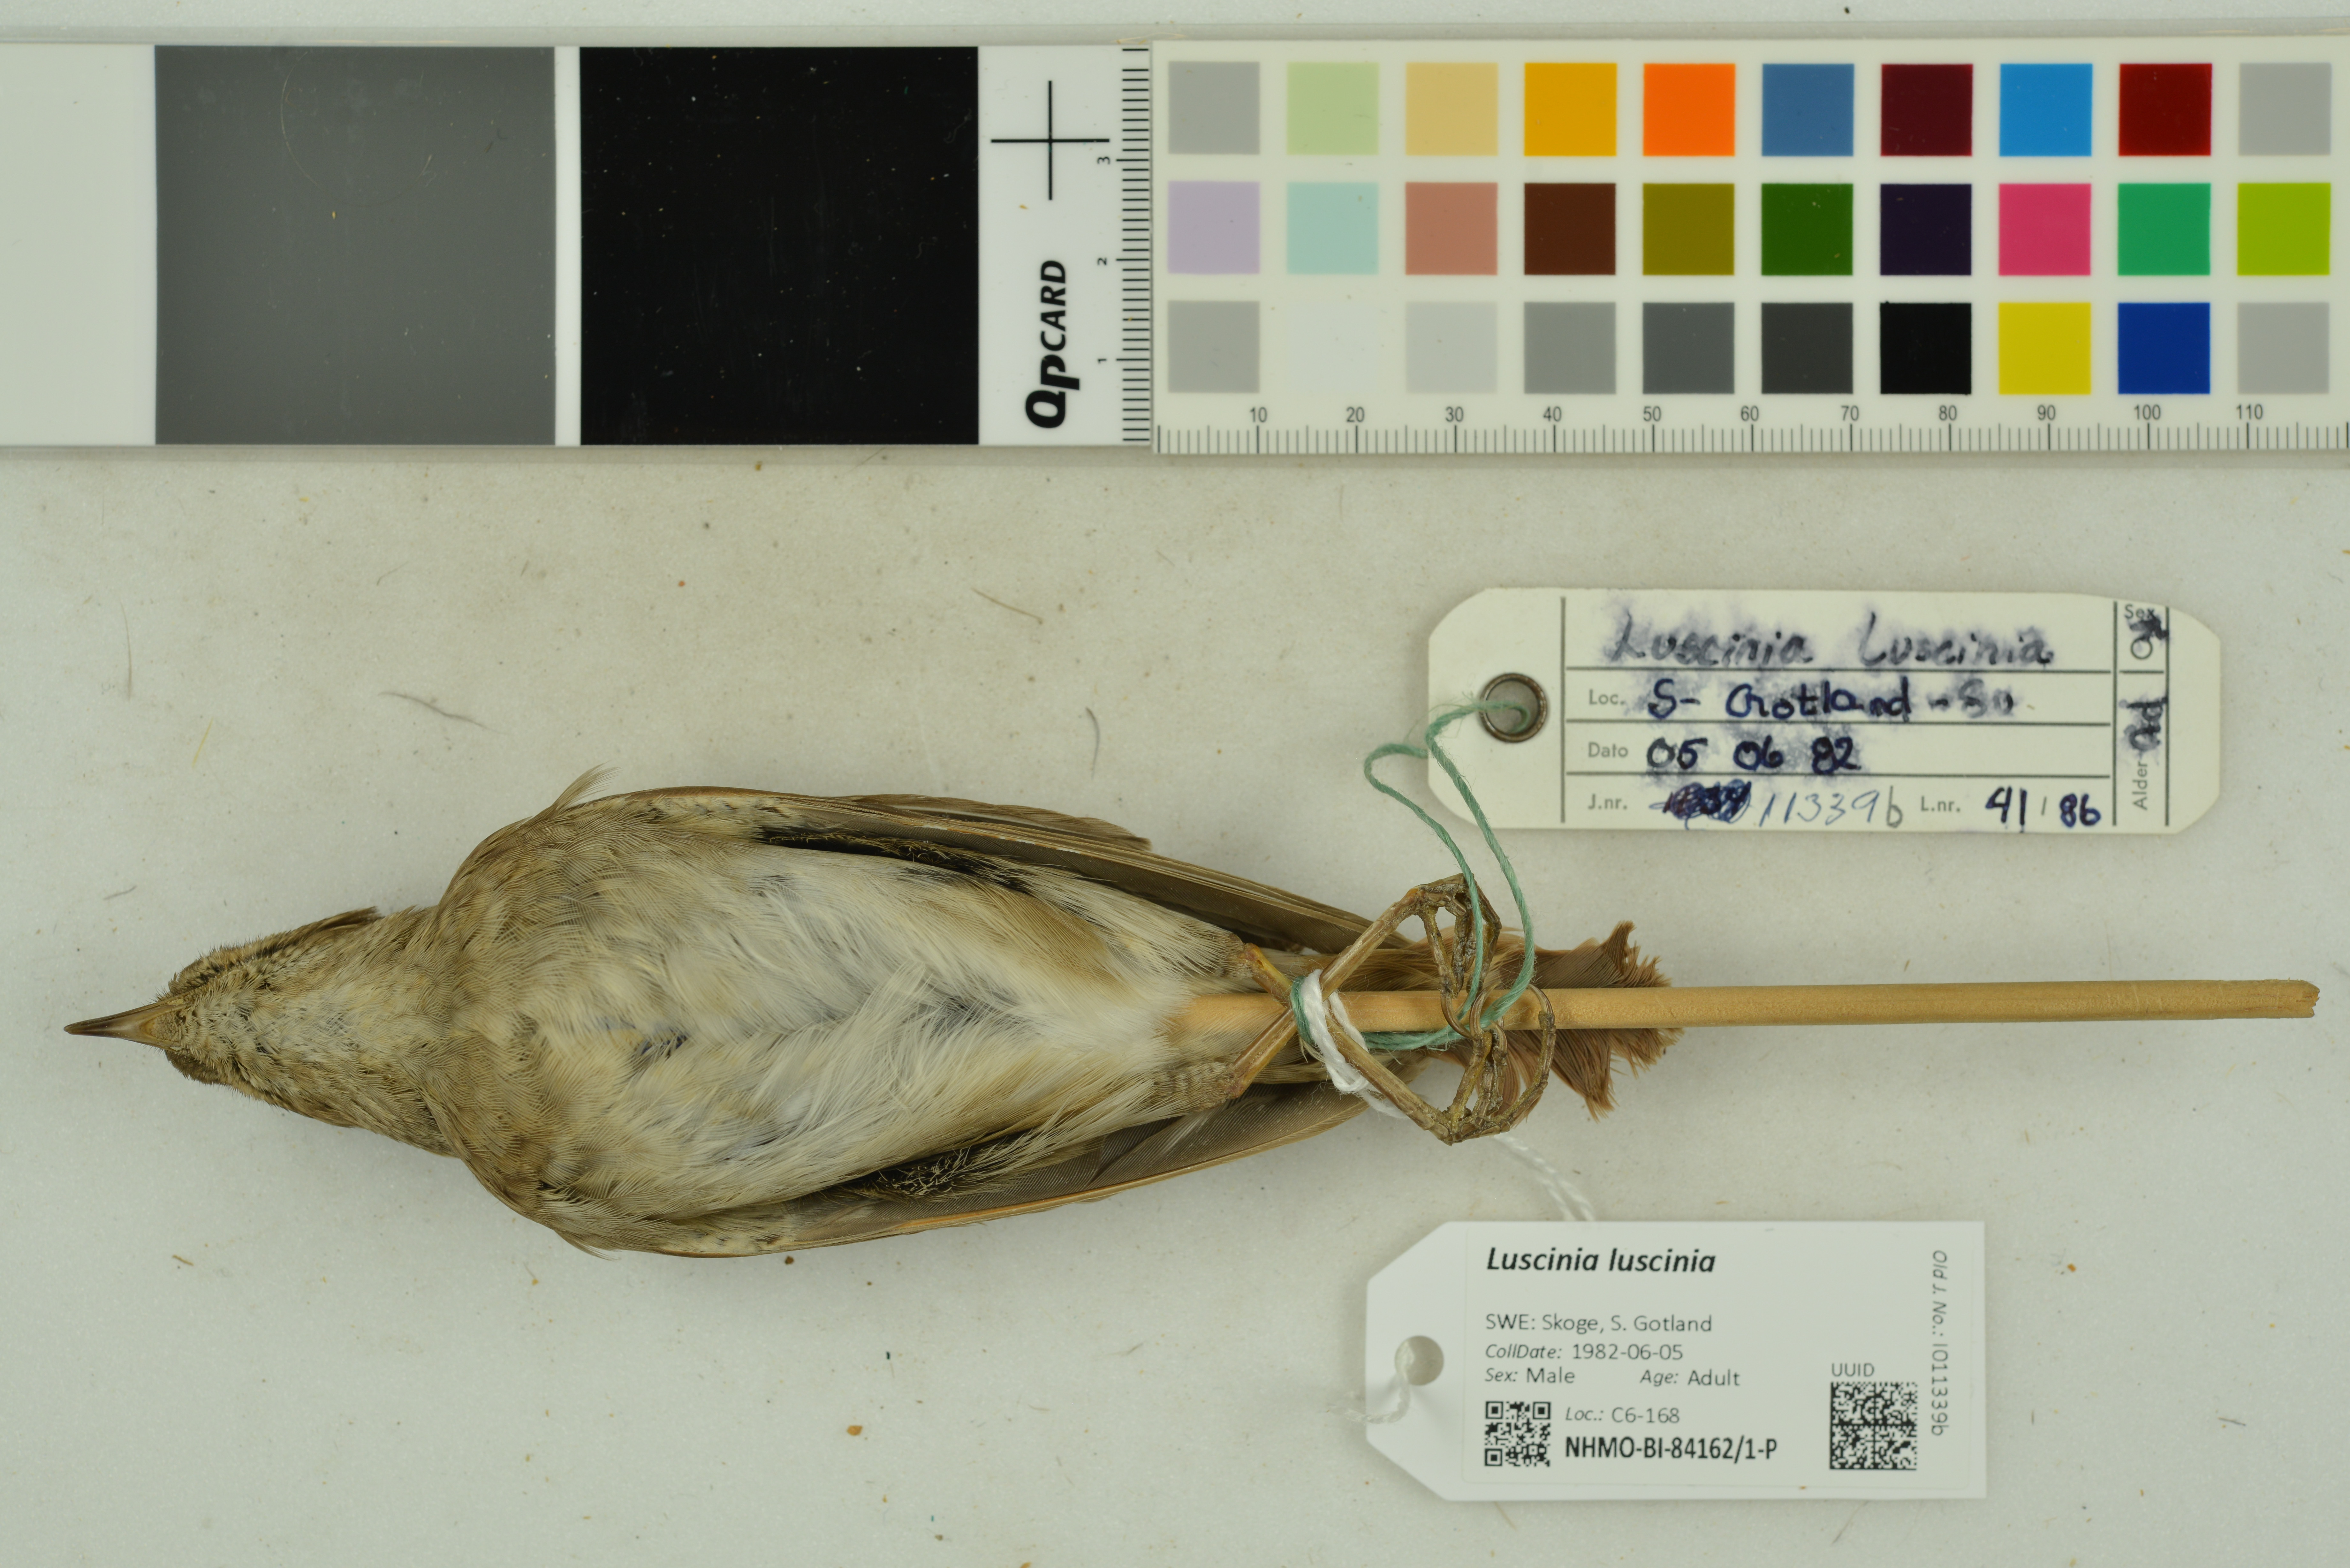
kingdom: Animalia
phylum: Chordata
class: Aves
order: Passeriformes
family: Muscicapidae
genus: Luscinia
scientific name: Luscinia luscinia
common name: Thrush nightingale
